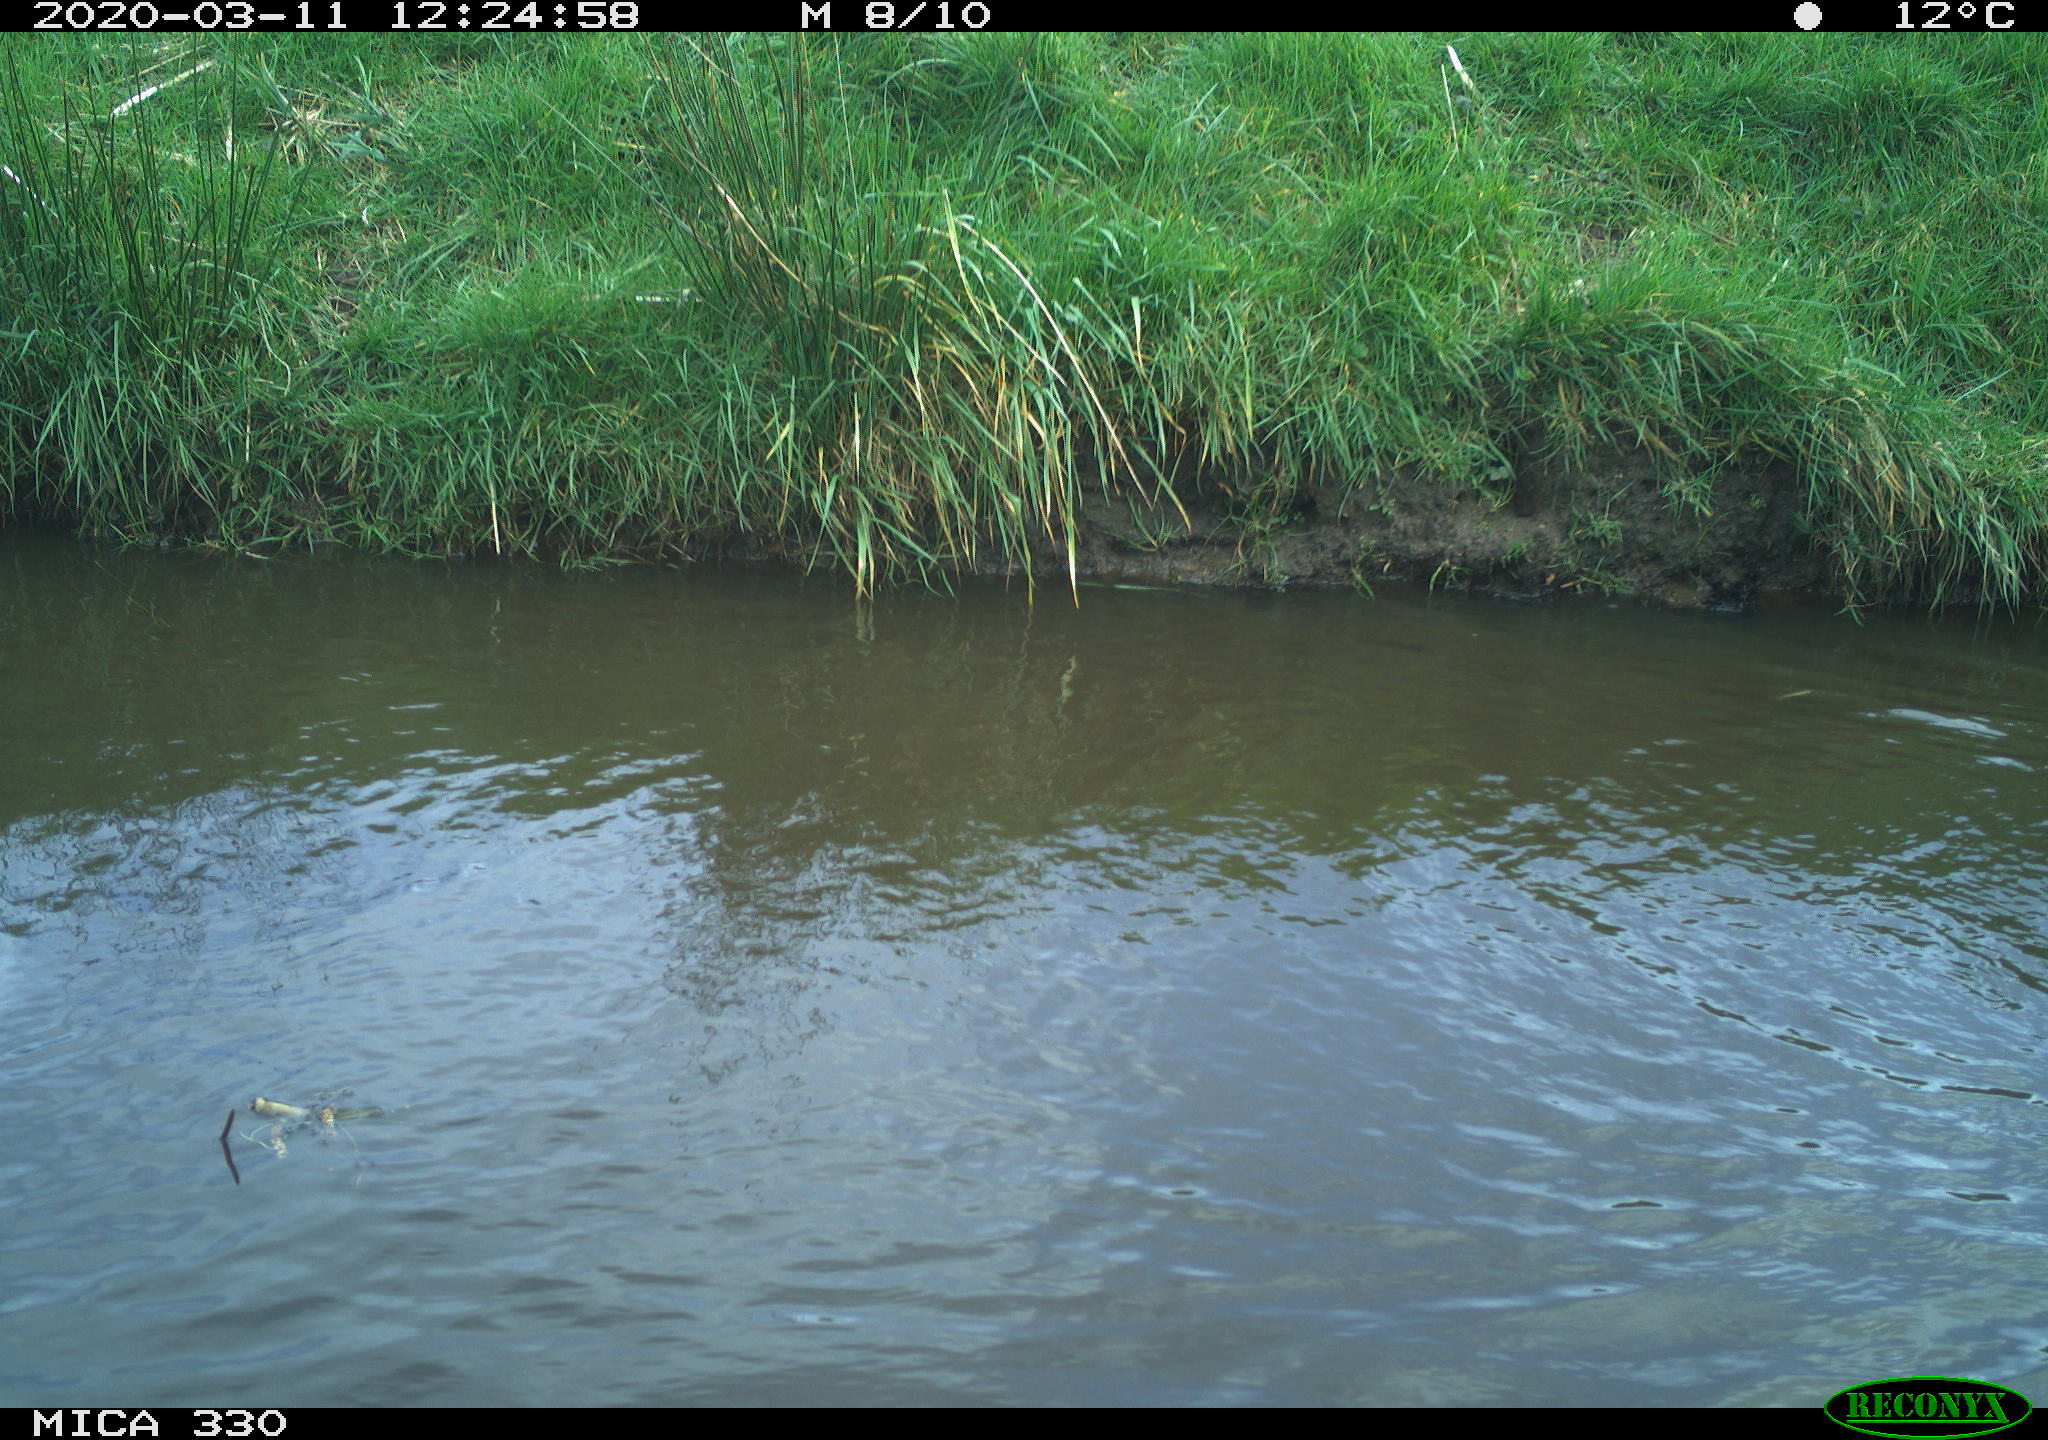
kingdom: Animalia
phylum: Chordata
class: Aves
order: Anseriformes
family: Anatidae
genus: Anas
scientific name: Anas platyrhynchos
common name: Mallard
